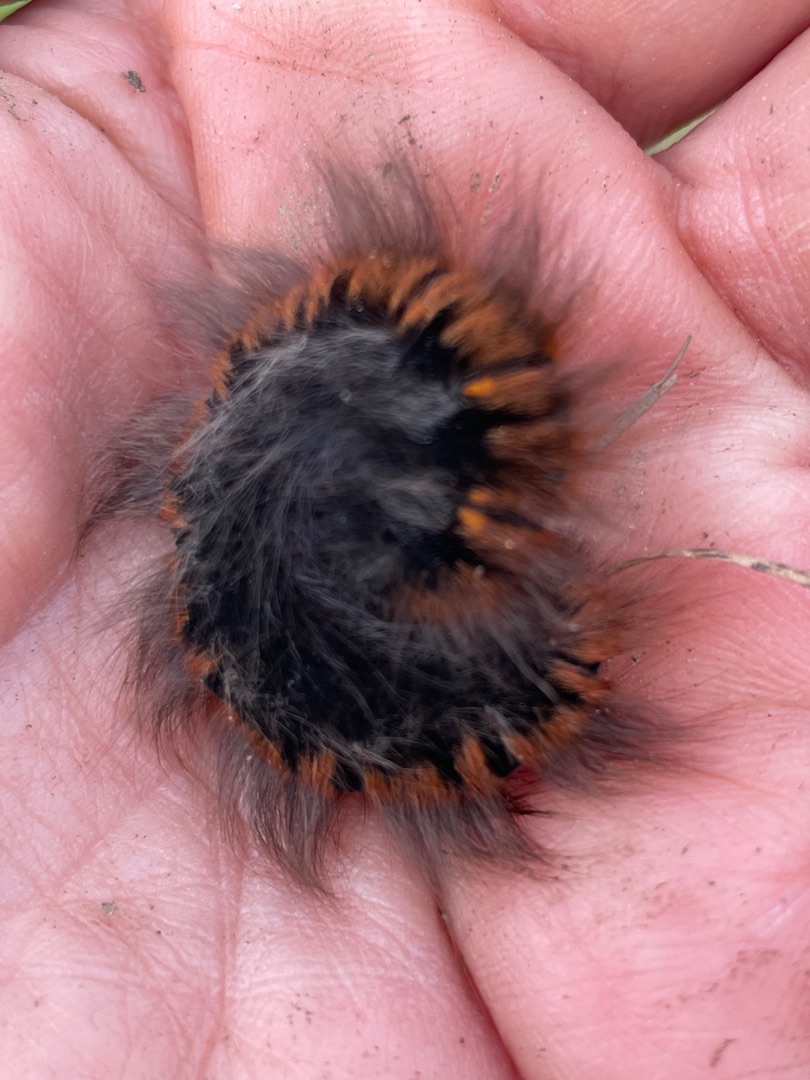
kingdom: Animalia
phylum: Arthropoda
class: Insecta
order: Lepidoptera
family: Lasiocampidae
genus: Macrothylacia
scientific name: Macrothylacia rubi
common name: Brombærspinder
